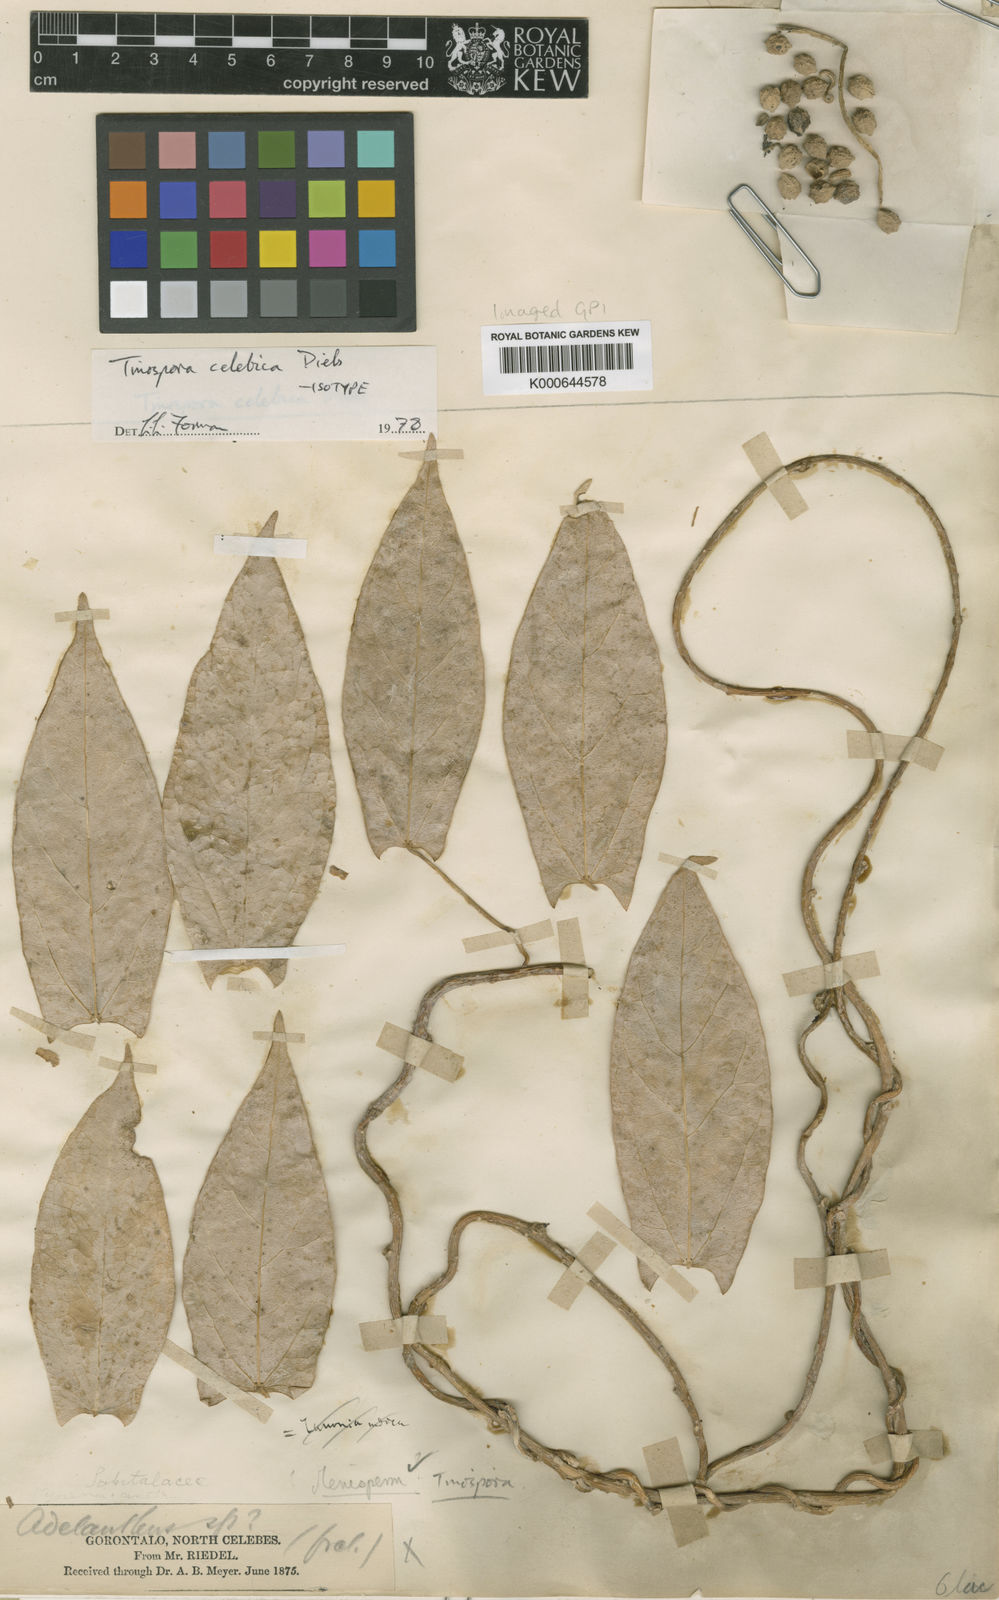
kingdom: Plantae
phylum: Tracheophyta
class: Magnoliopsida
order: Ranunculales
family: Menispermaceae
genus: Tinospora
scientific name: Tinospora celebica
